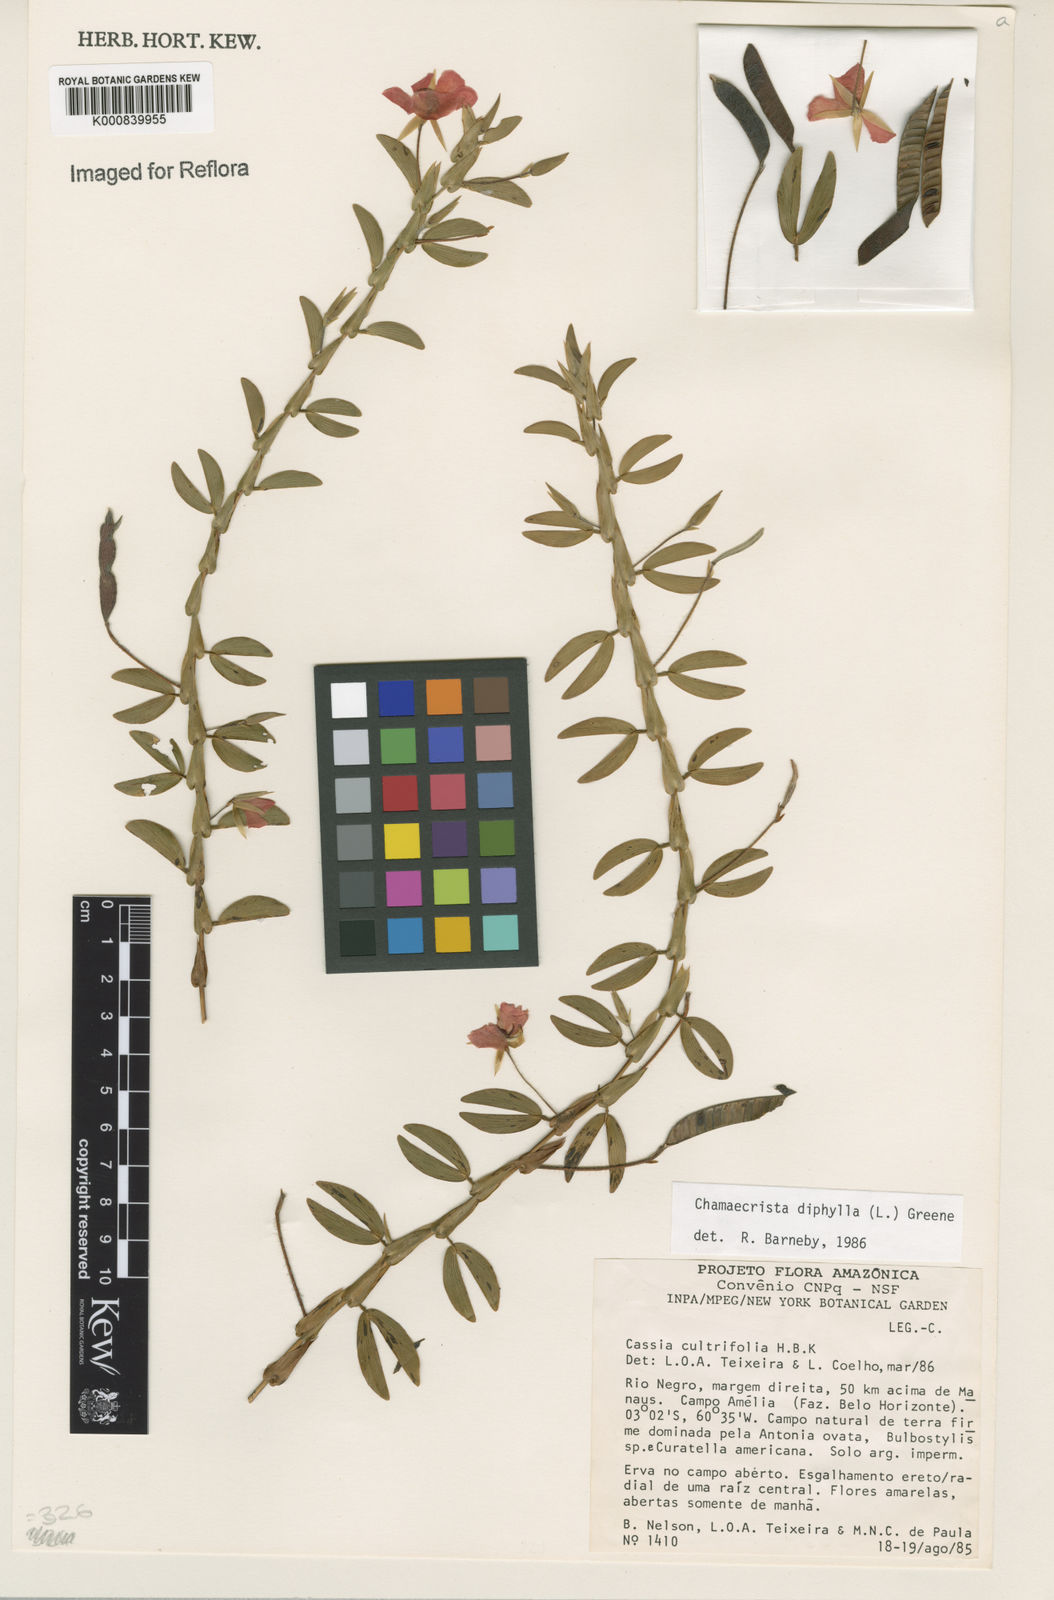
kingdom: Plantae
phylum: Tracheophyta
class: Magnoliopsida
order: Fabales
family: Fabaceae
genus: Chamaecrista
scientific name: Chamaecrista diphylla
